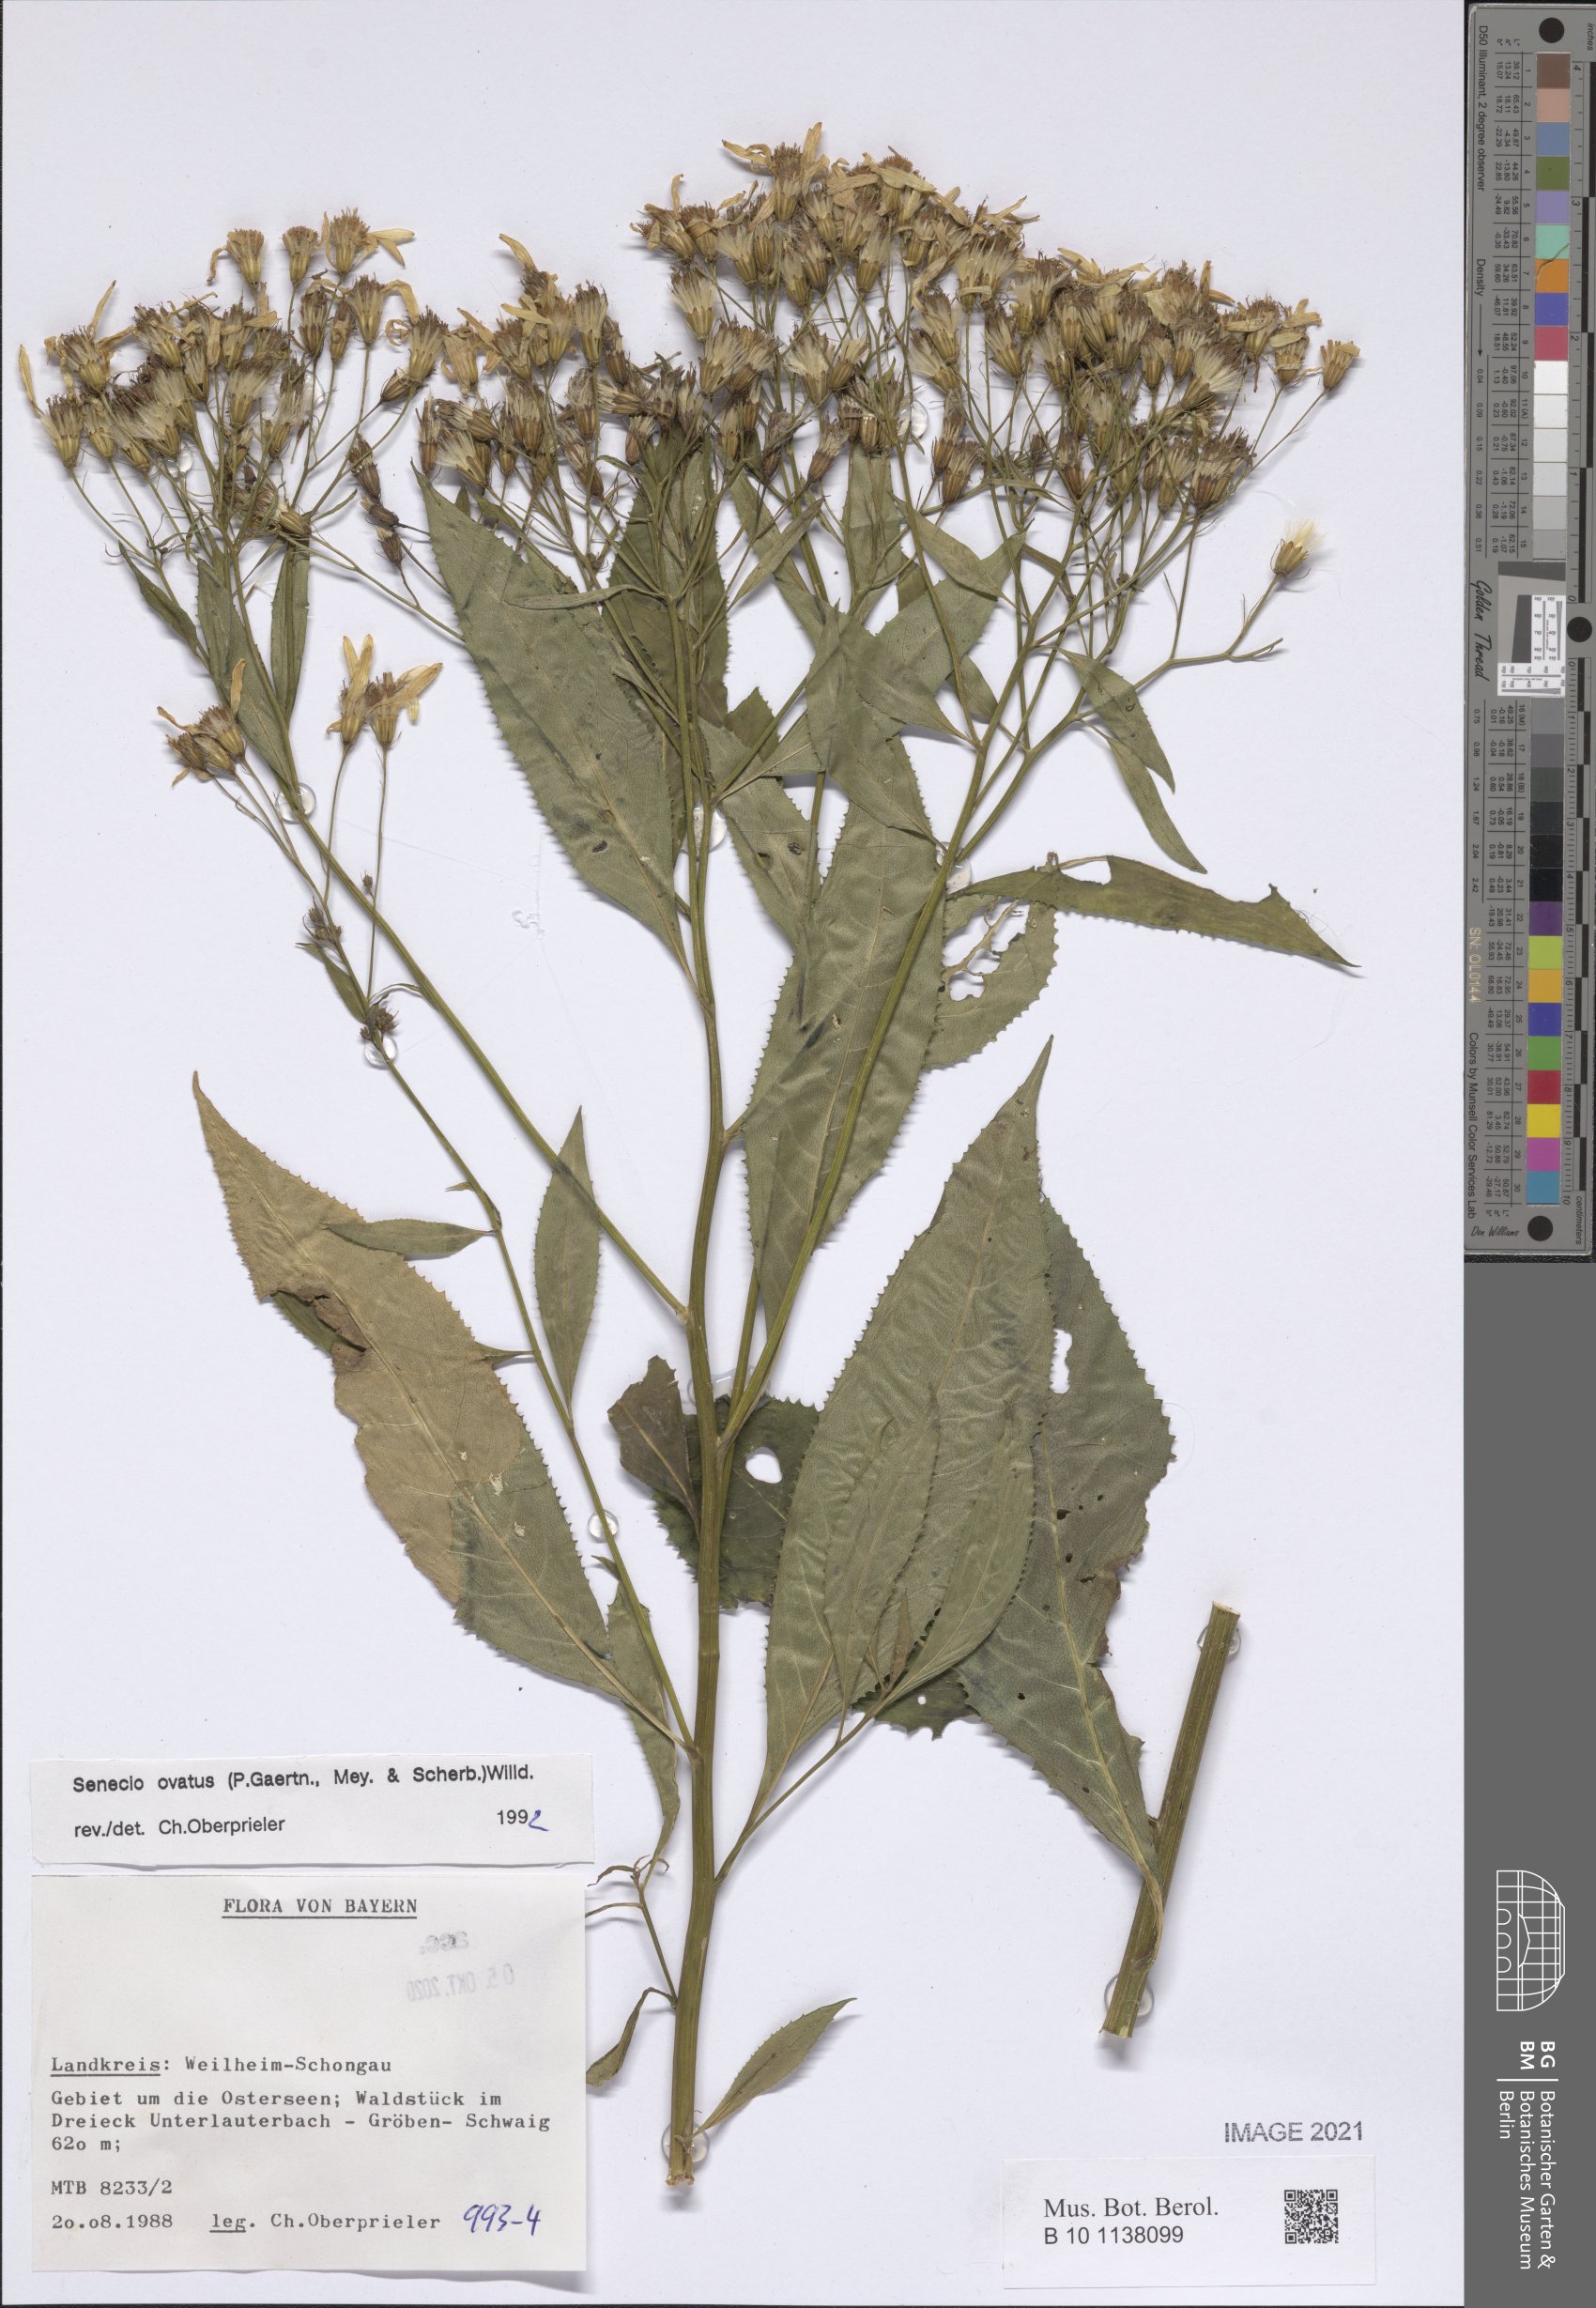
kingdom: Plantae
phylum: Tracheophyta
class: Magnoliopsida
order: Asterales
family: Asteraceae
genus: Senecio
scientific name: Senecio ovatus
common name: Wood ragwort
